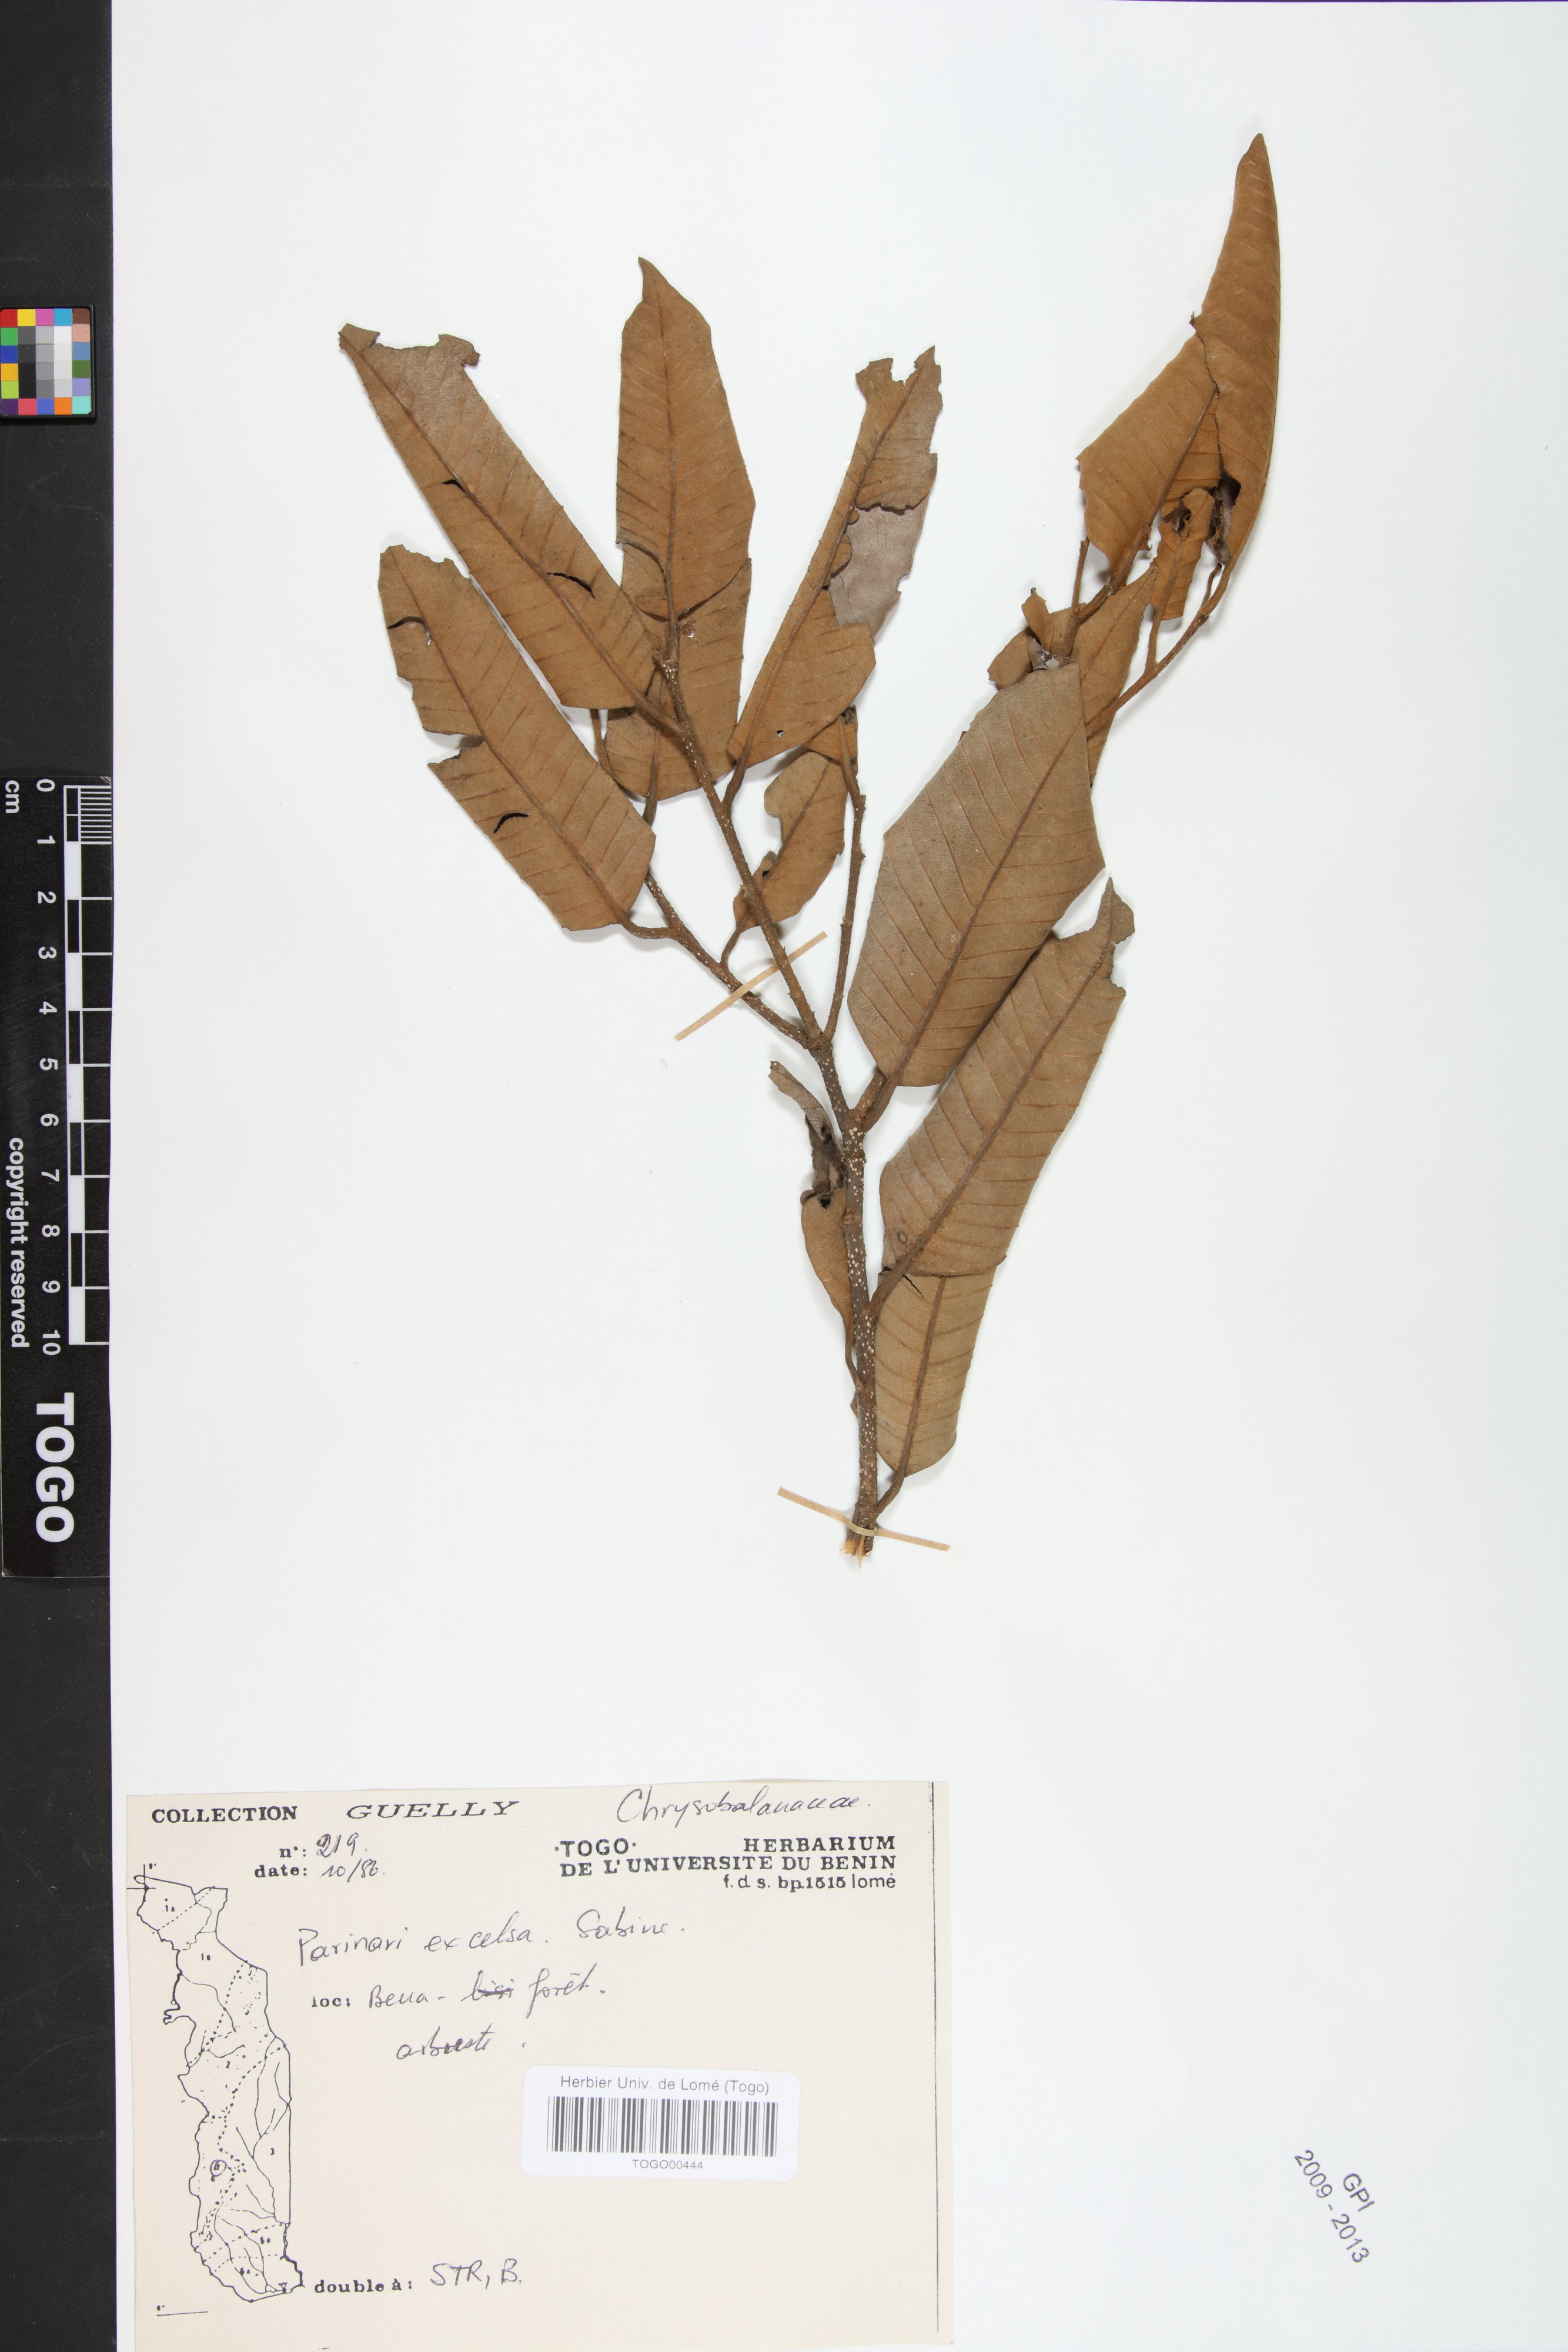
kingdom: Plantae
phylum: Tracheophyta
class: Magnoliopsida
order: Malpighiales
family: Chrysobalanaceae
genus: Parinari
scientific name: Parinari excelsa
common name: Guinea-plum
